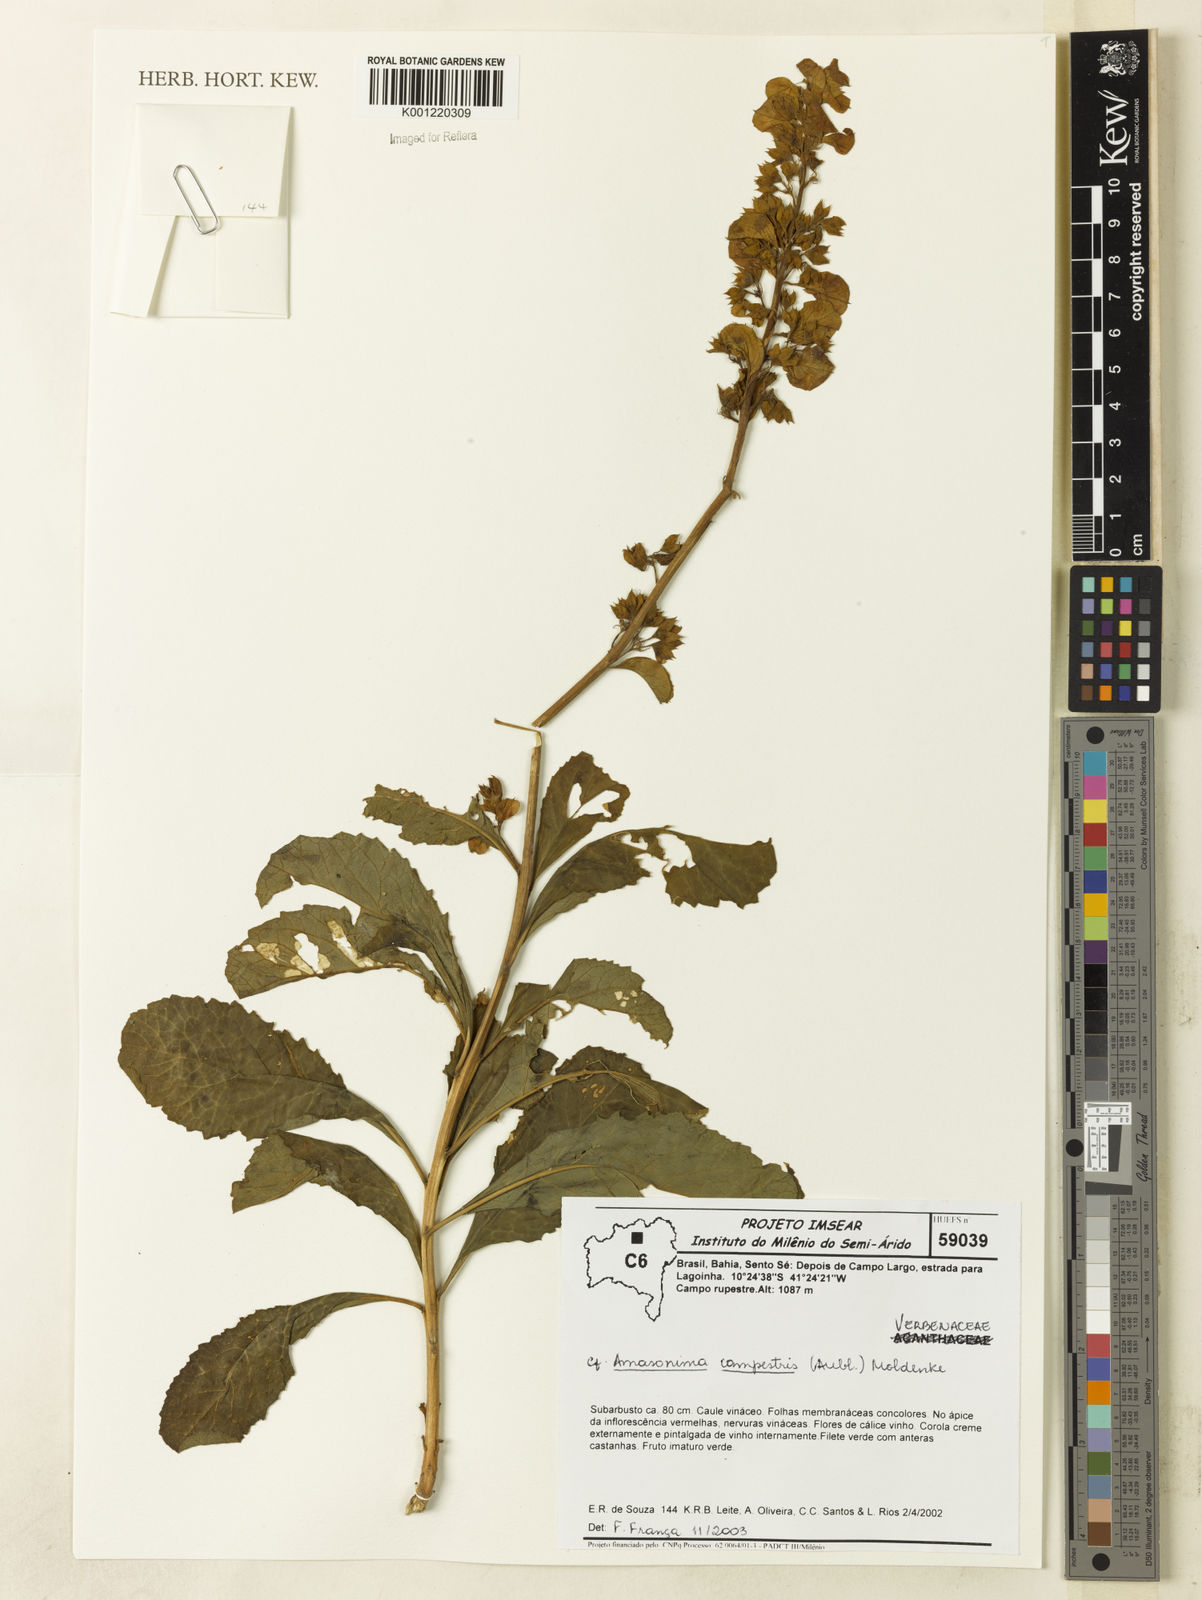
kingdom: Plantae
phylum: Tracheophyta
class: Magnoliopsida
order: Lamiales
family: Lamiaceae
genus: Amasonia
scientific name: Amasonia campestris
